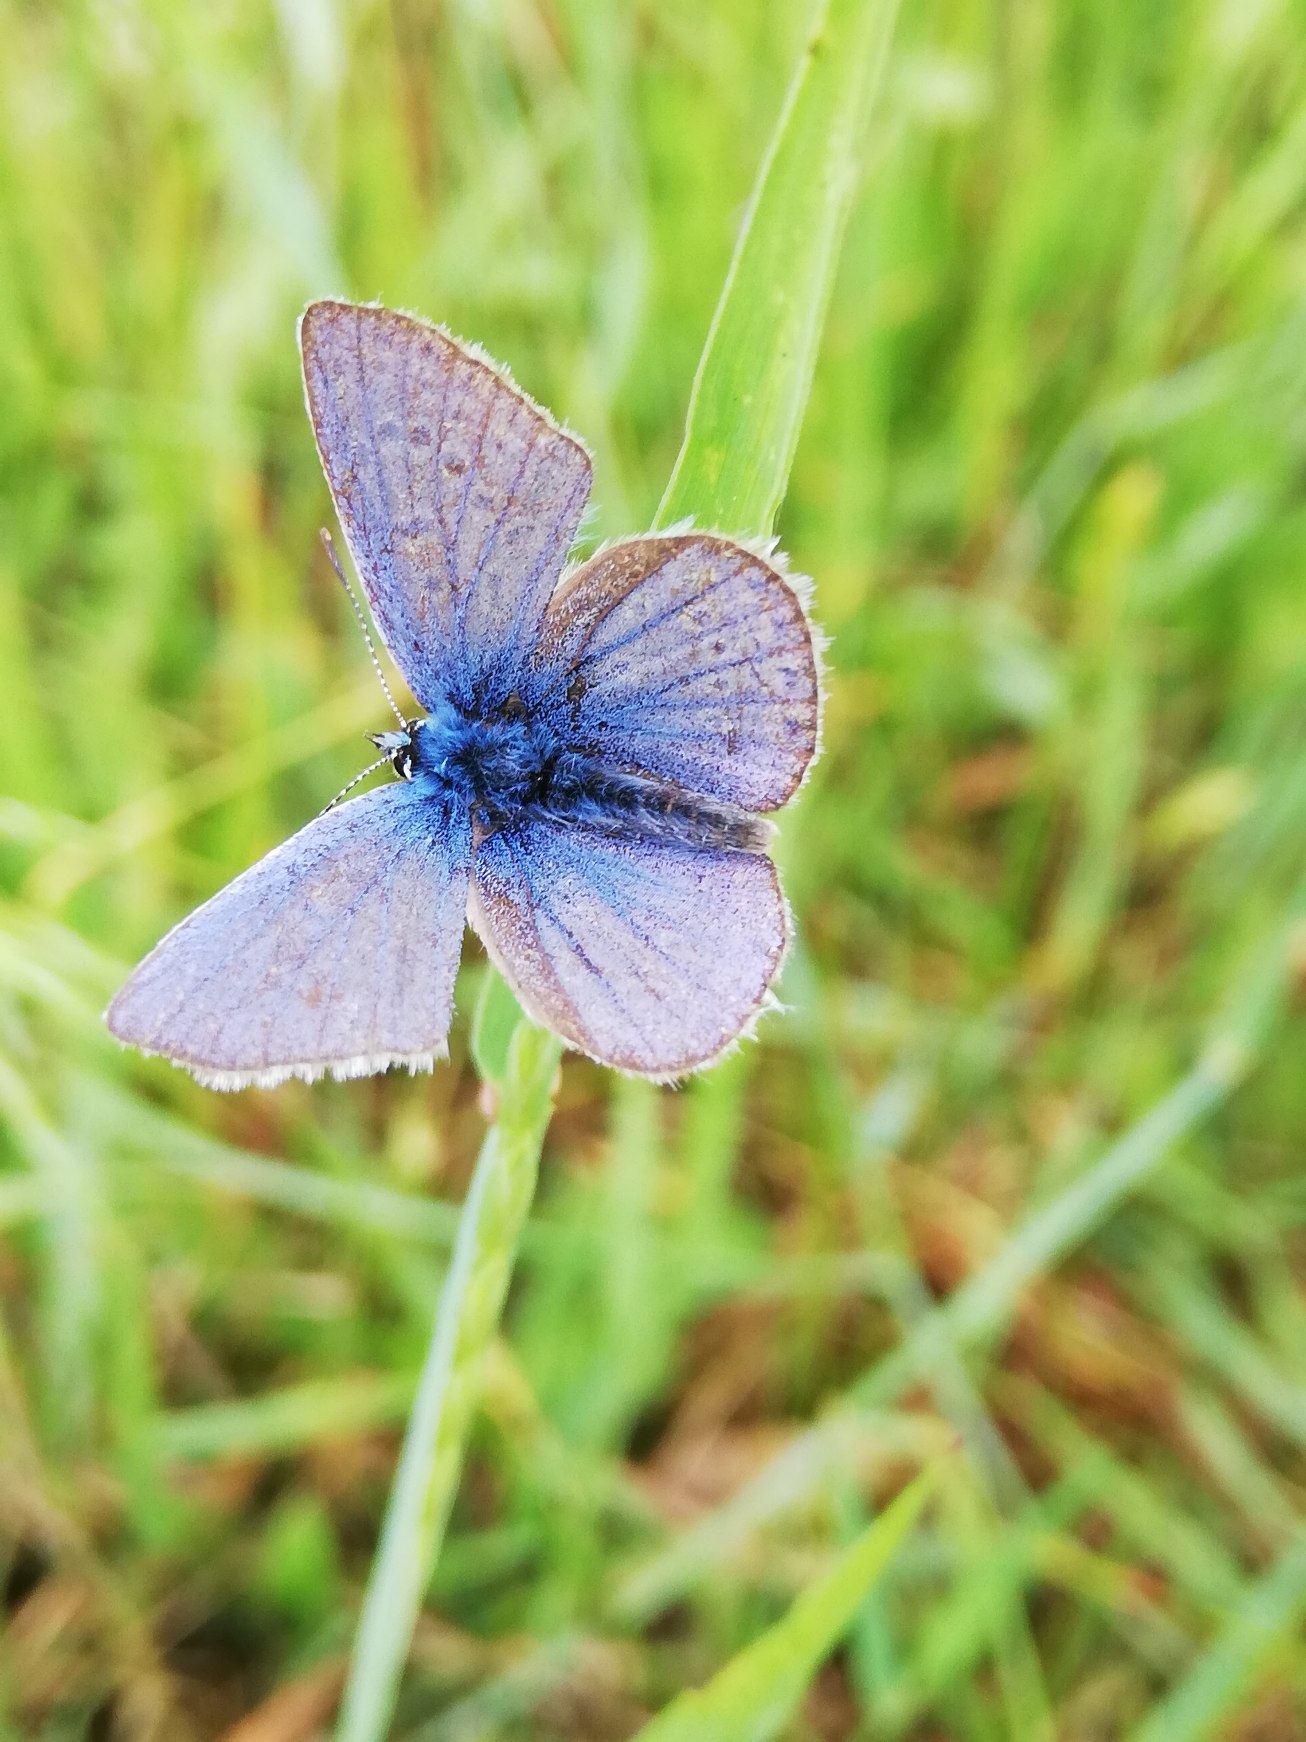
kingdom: Animalia
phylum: Arthropoda
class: Insecta
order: Lepidoptera
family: Lycaenidae
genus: Polyommatus
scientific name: Polyommatus icarus
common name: Almindelig blåfugl
